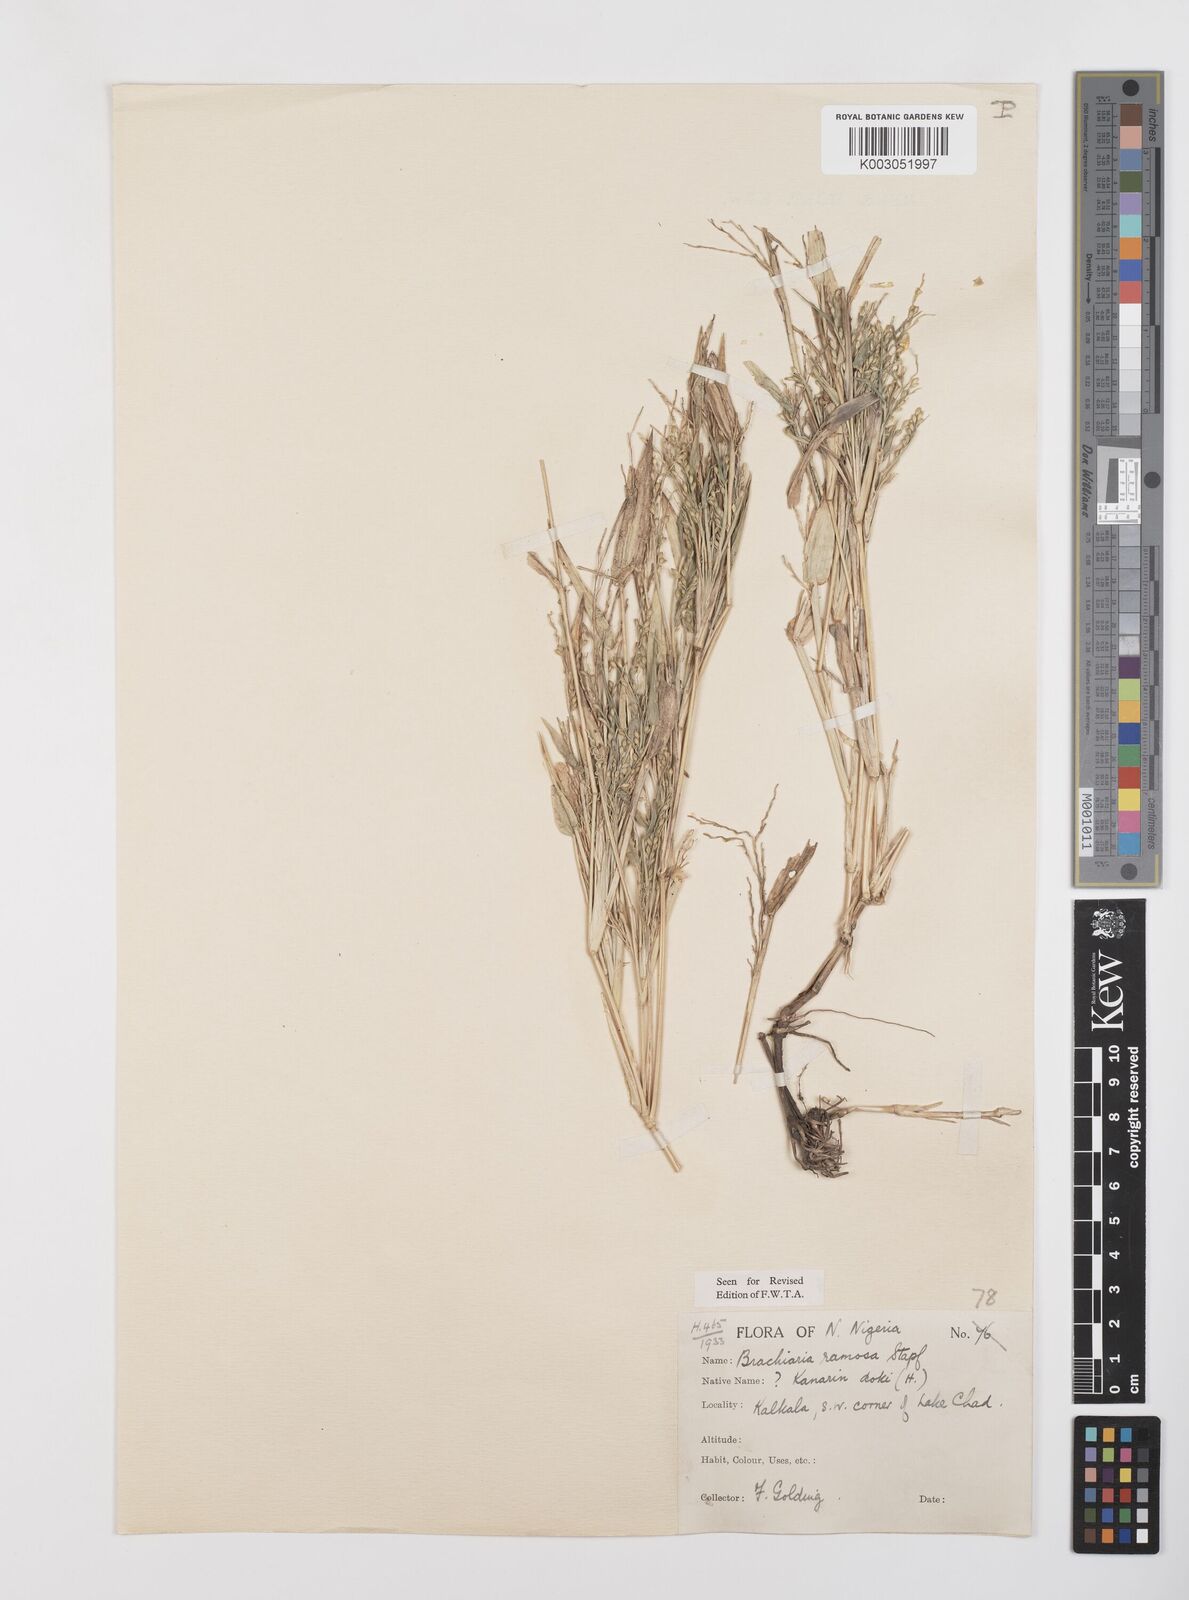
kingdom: Plantae
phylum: Tracheophyta
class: Liliopsida
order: Poales
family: Poaceae
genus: Urochloa
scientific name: Urochloa ramosa
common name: Browntop millet
